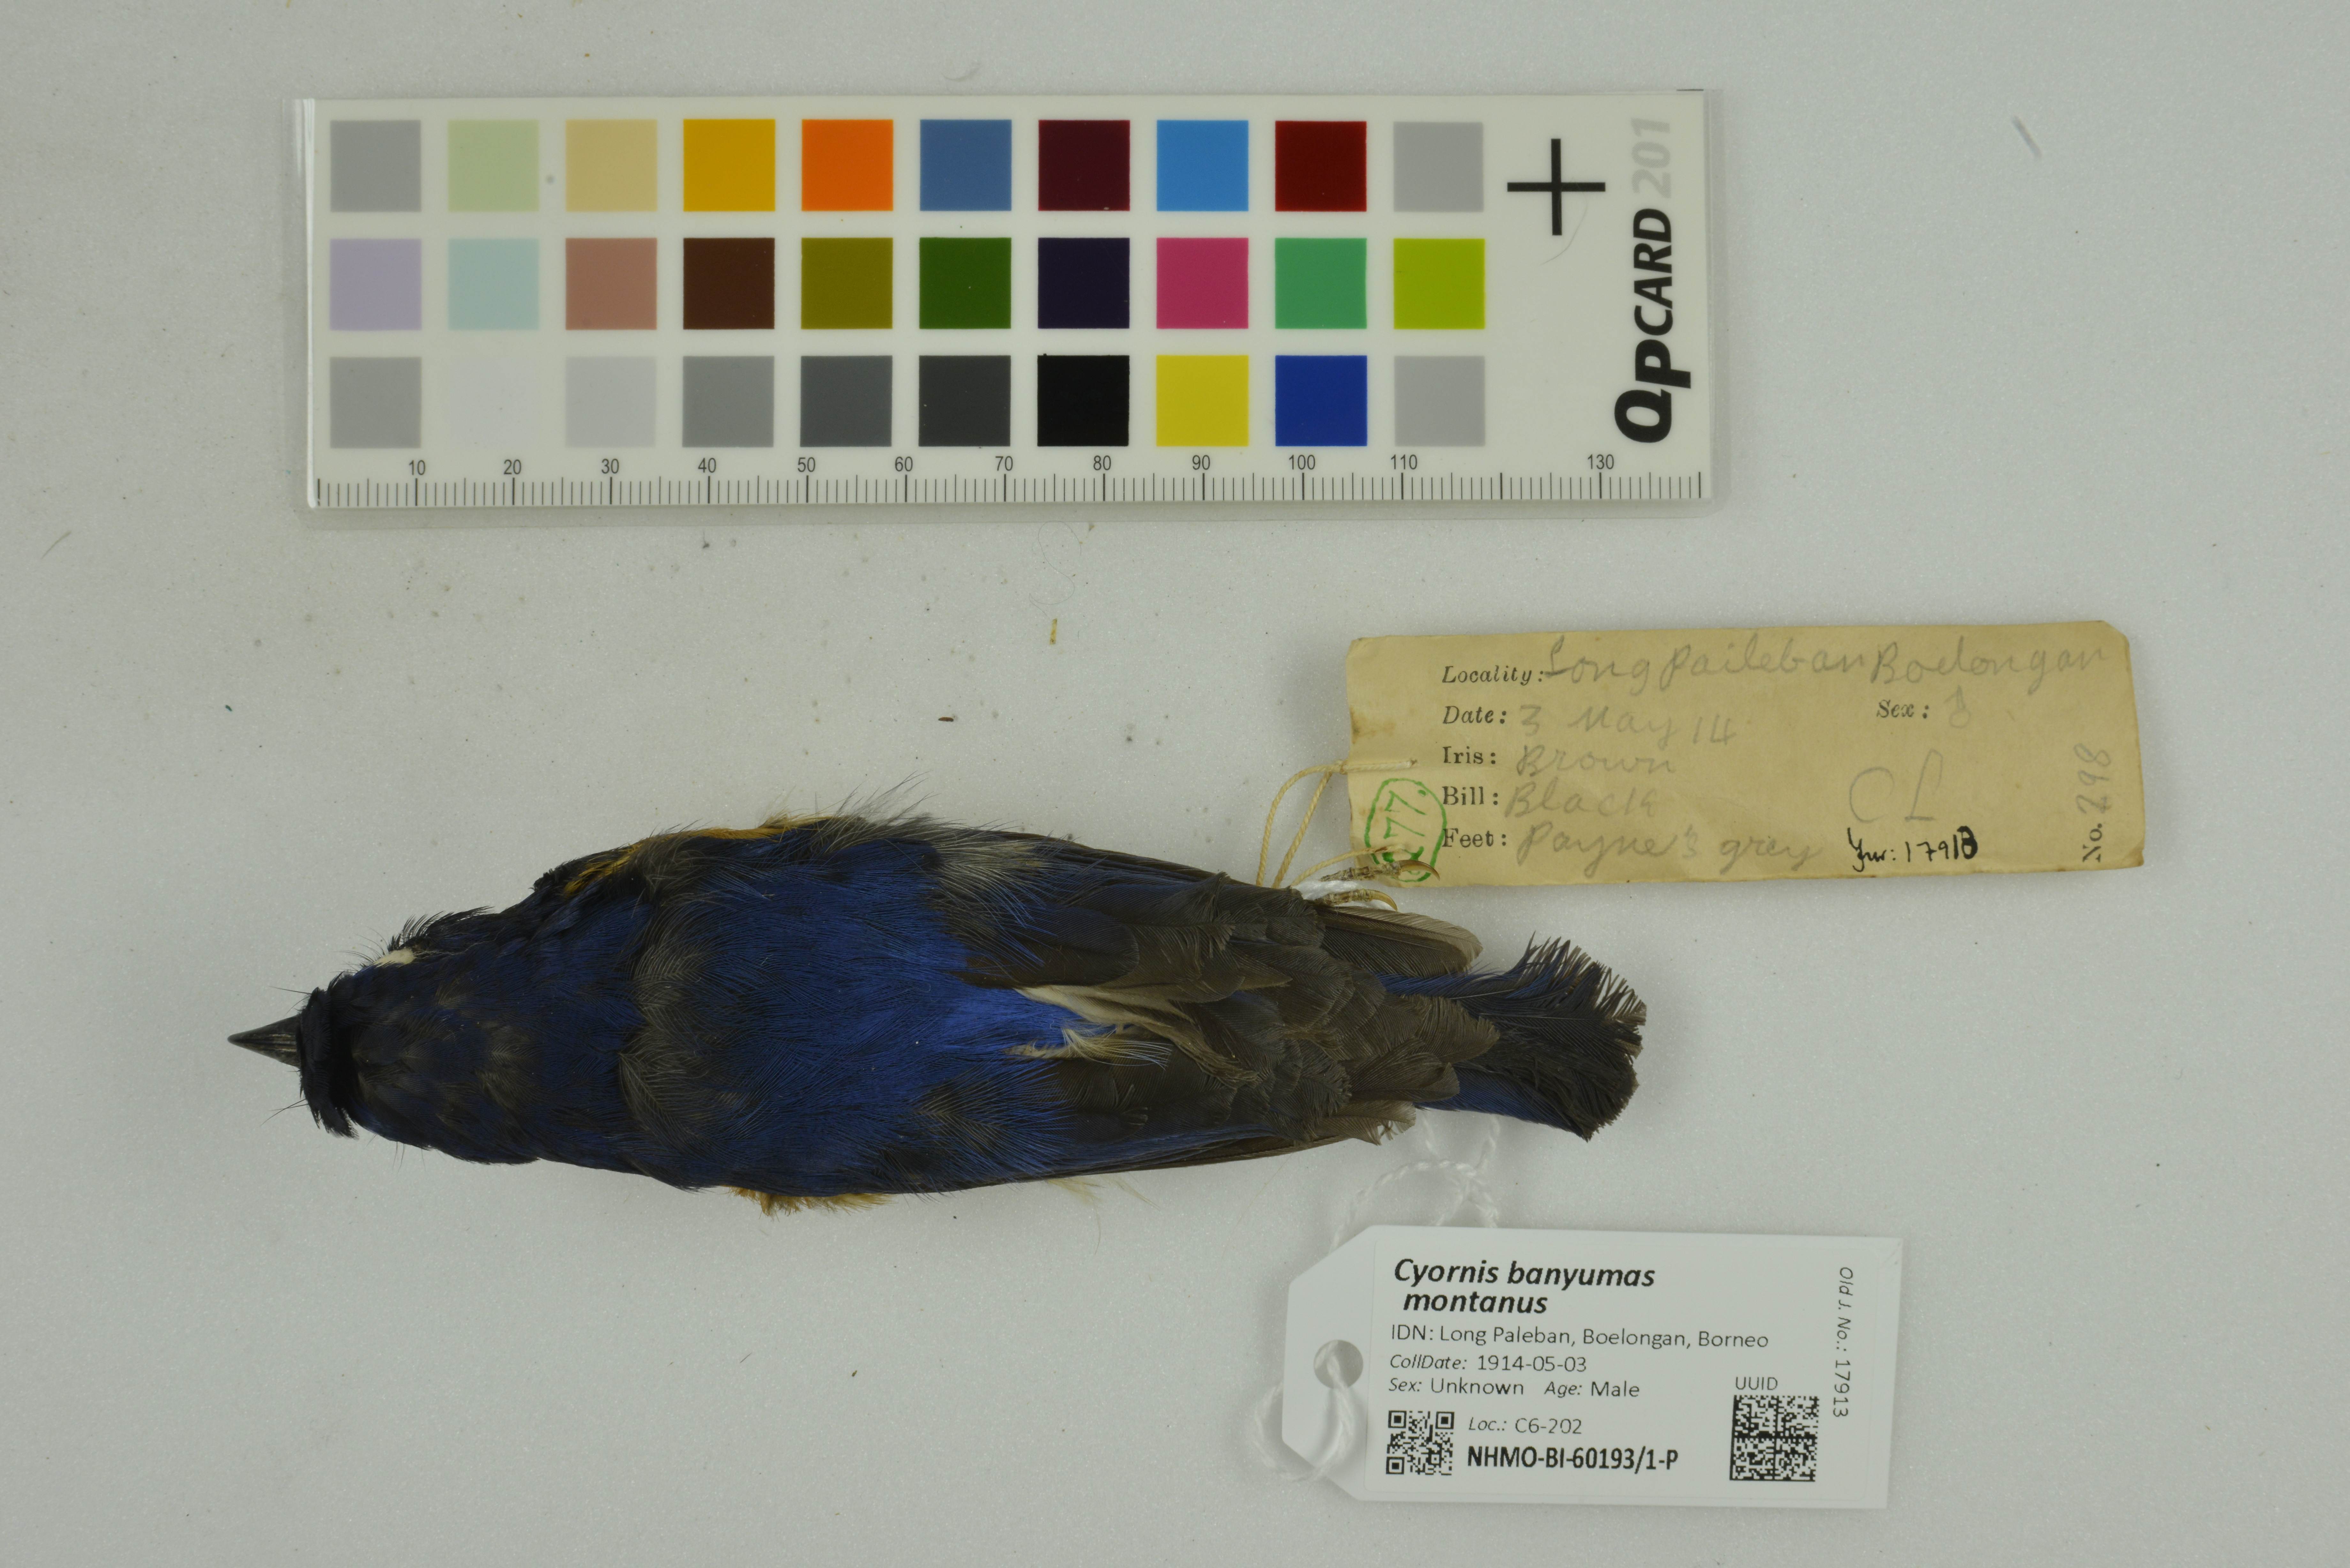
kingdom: Animalia
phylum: Chordata
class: Aves
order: Passeriformes
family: Muscicapidae
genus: Cyornis
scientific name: Cyornis montanus
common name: Dayak blue flycatcher
